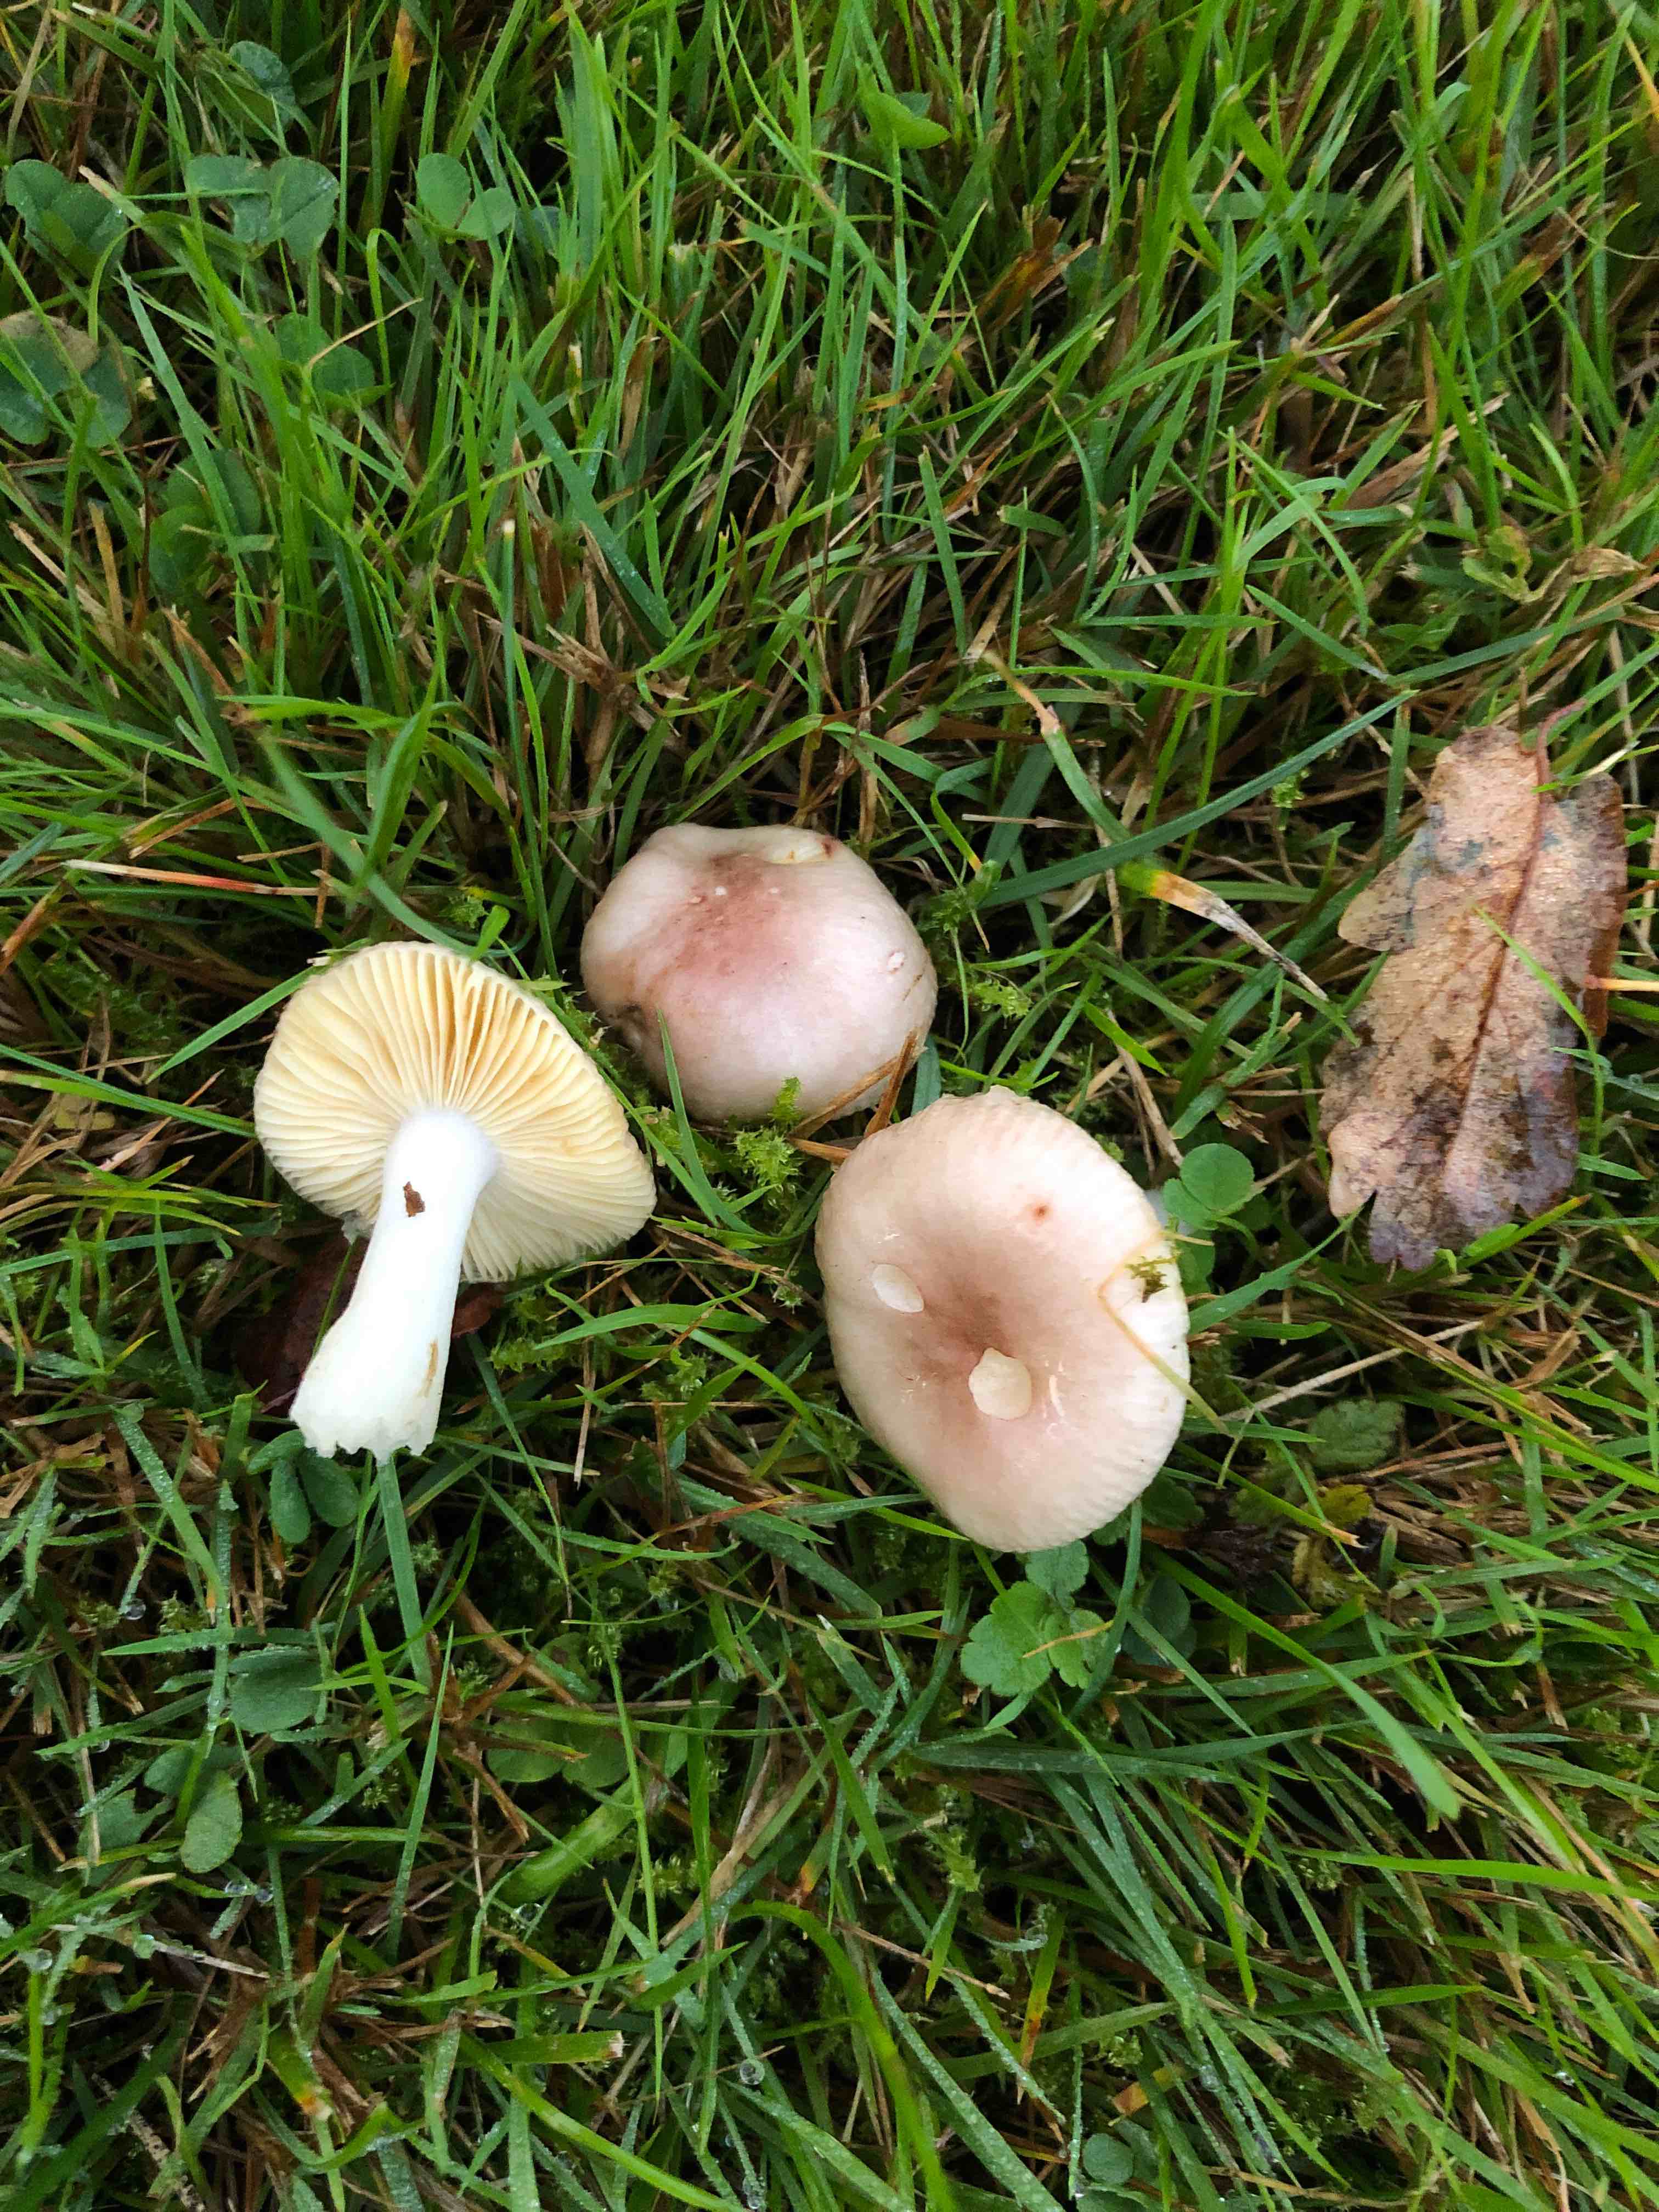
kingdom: Fungi
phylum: Basidiomycota
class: Agaricomycetes
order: Russulales
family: Russulaceae
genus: Russula
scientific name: Russula odorata
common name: duft-skørhat
